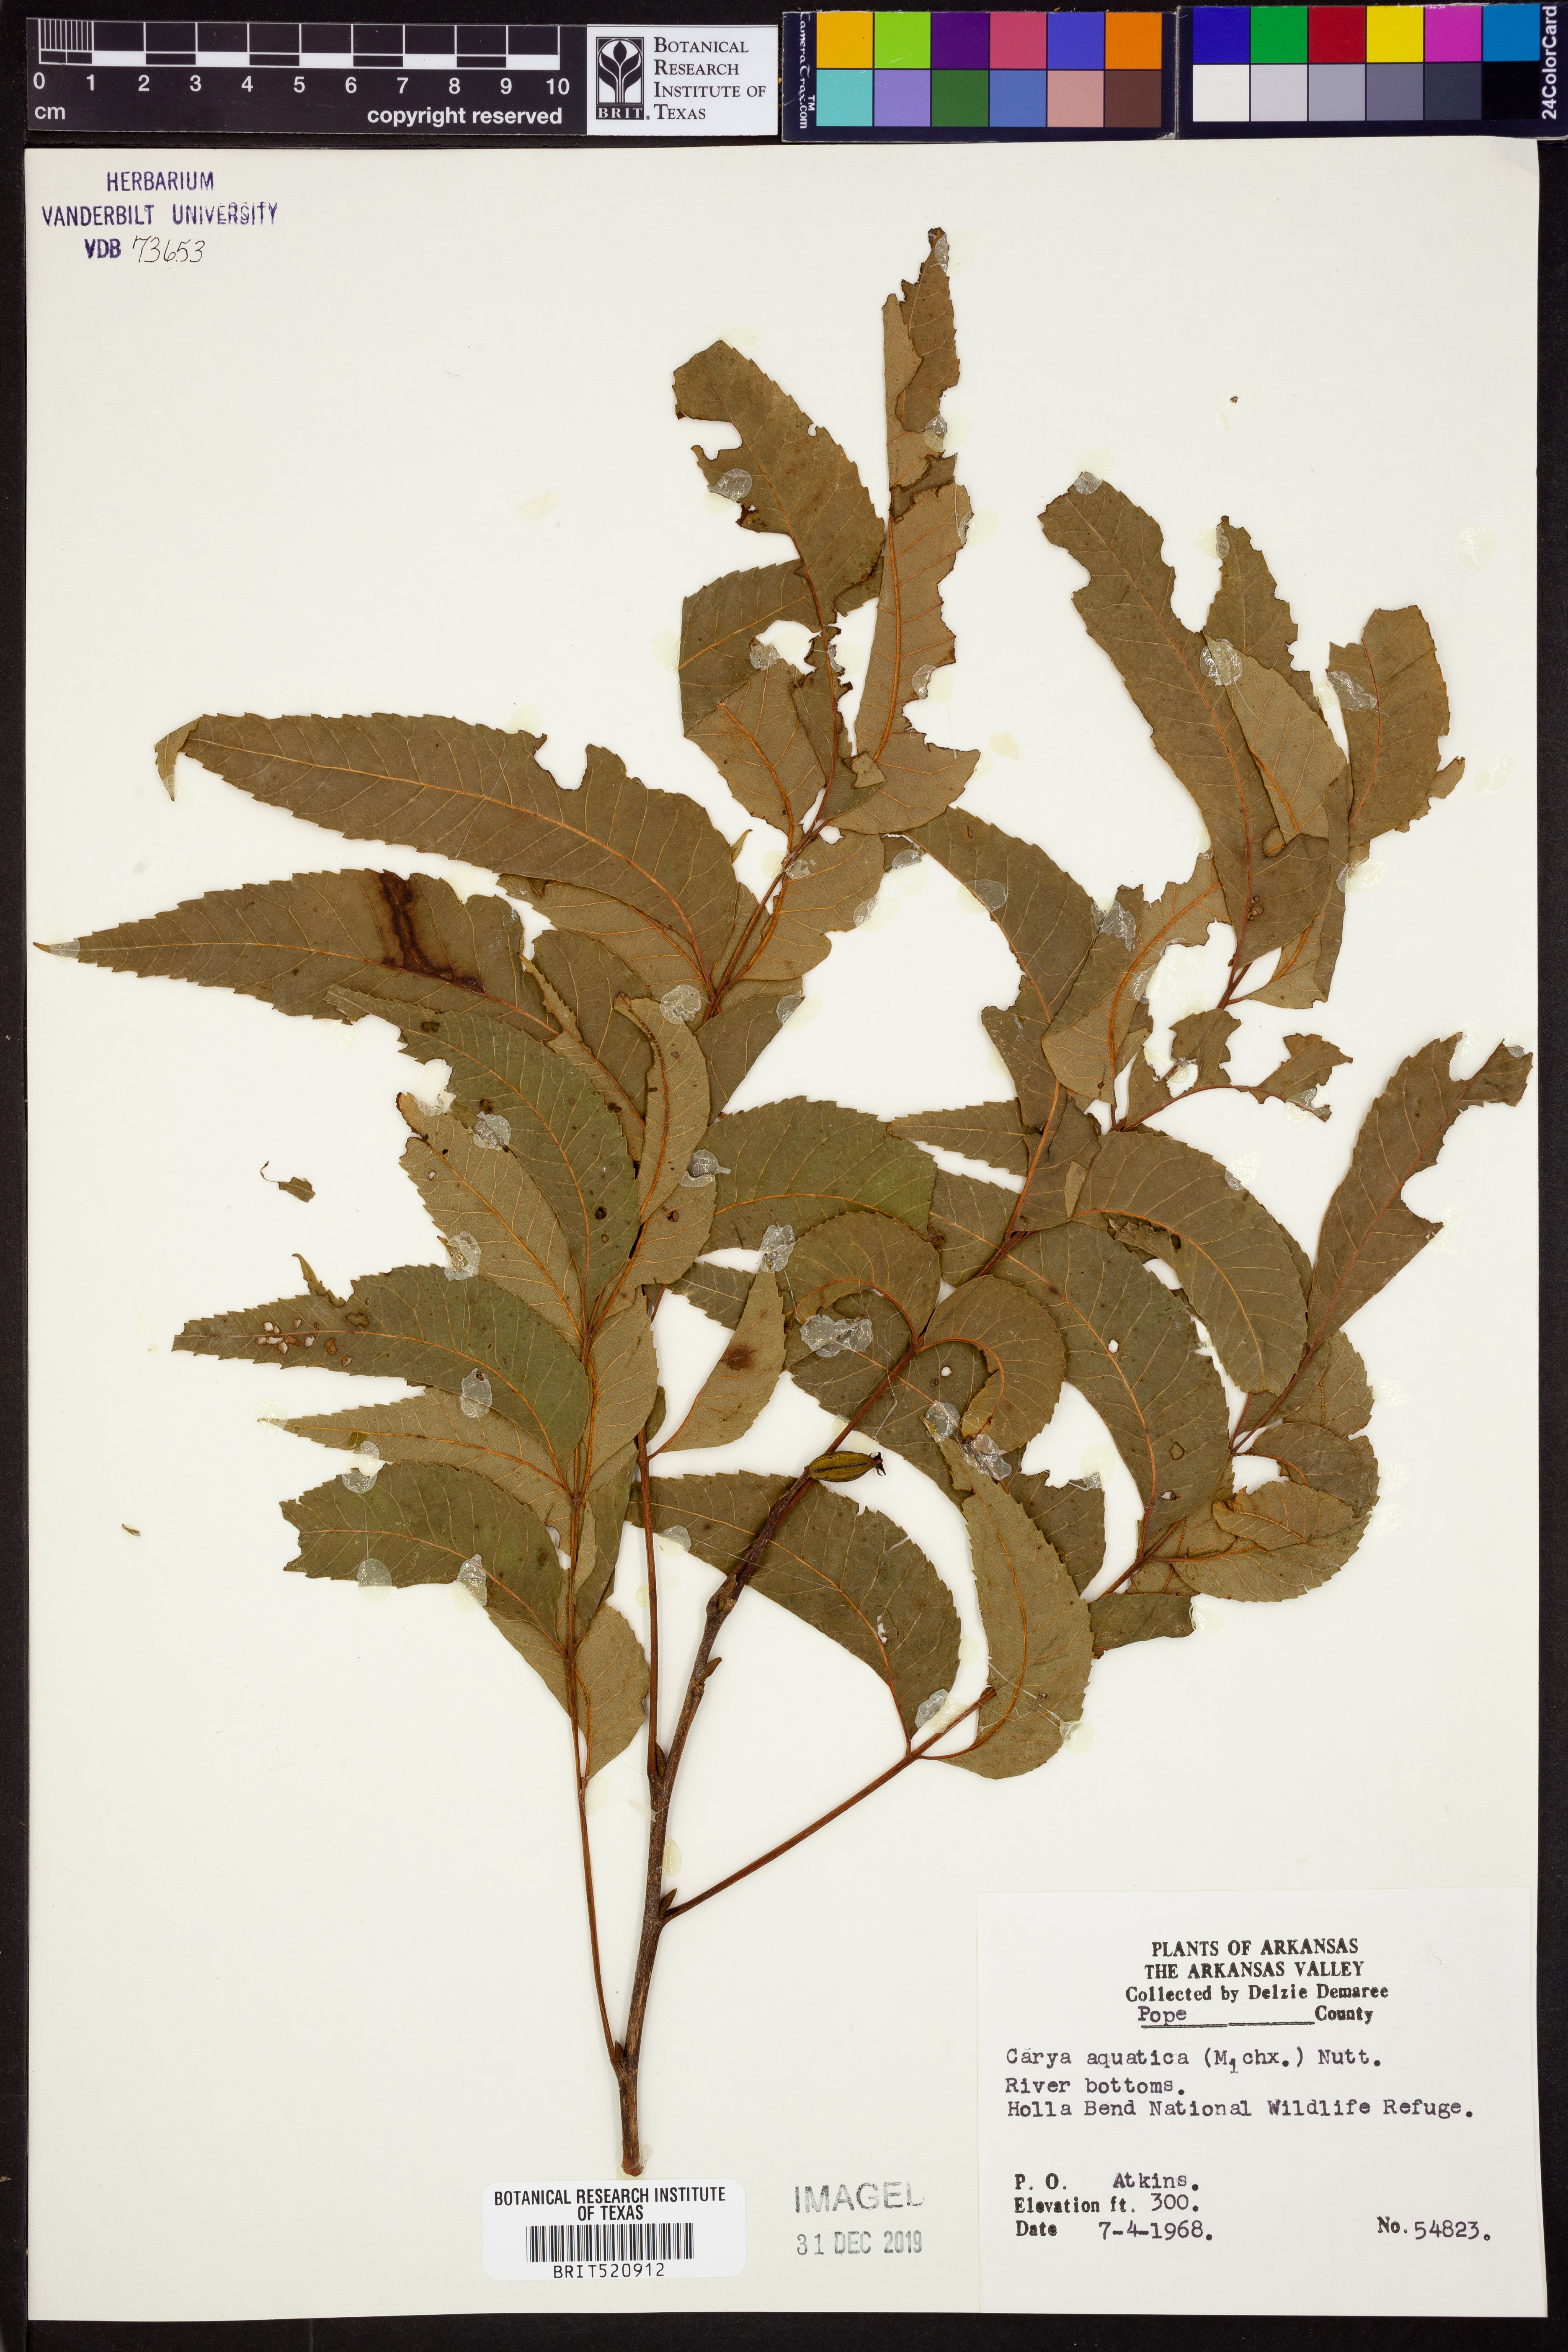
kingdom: Plantae
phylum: Tracheophyta
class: Magnoliopsida
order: Fagales
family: Juglandaceae
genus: Carya
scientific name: Carya aquatica
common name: Water hickory
